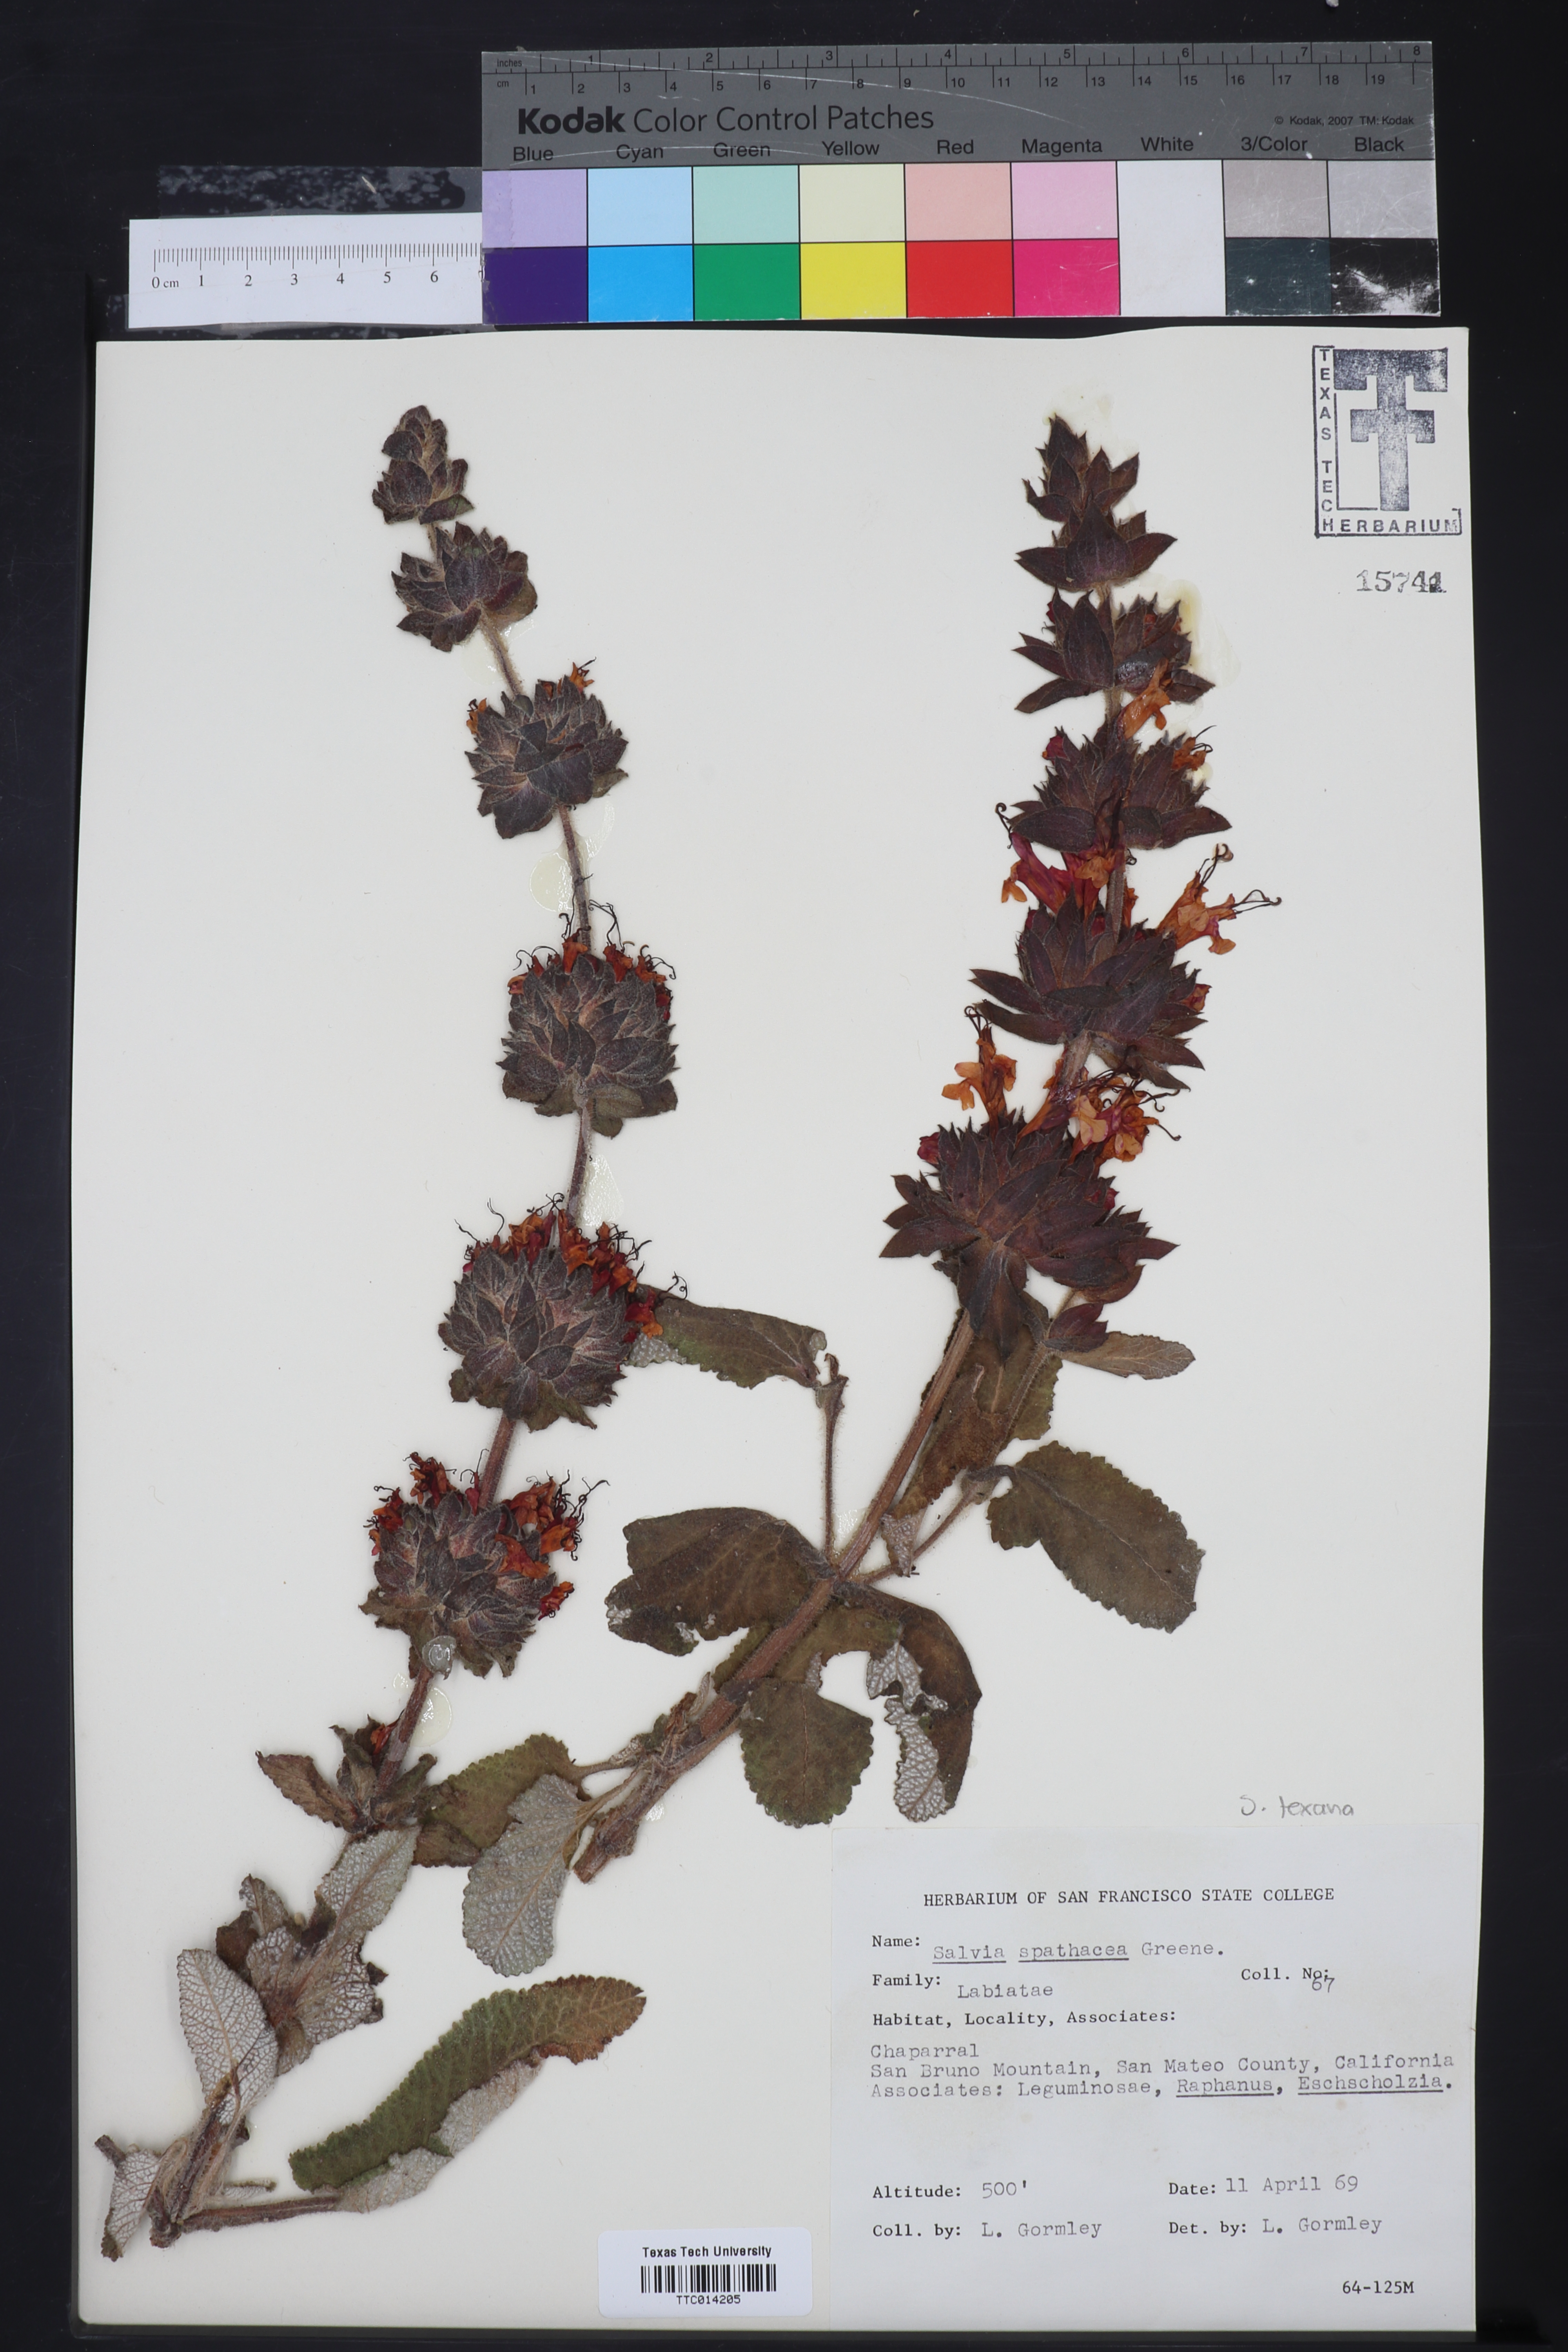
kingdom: Plantae
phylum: Tracheophyta
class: Magnoliopsida
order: Lamiales
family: Lamiaceae
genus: Salvia
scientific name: Salvia spathacea
